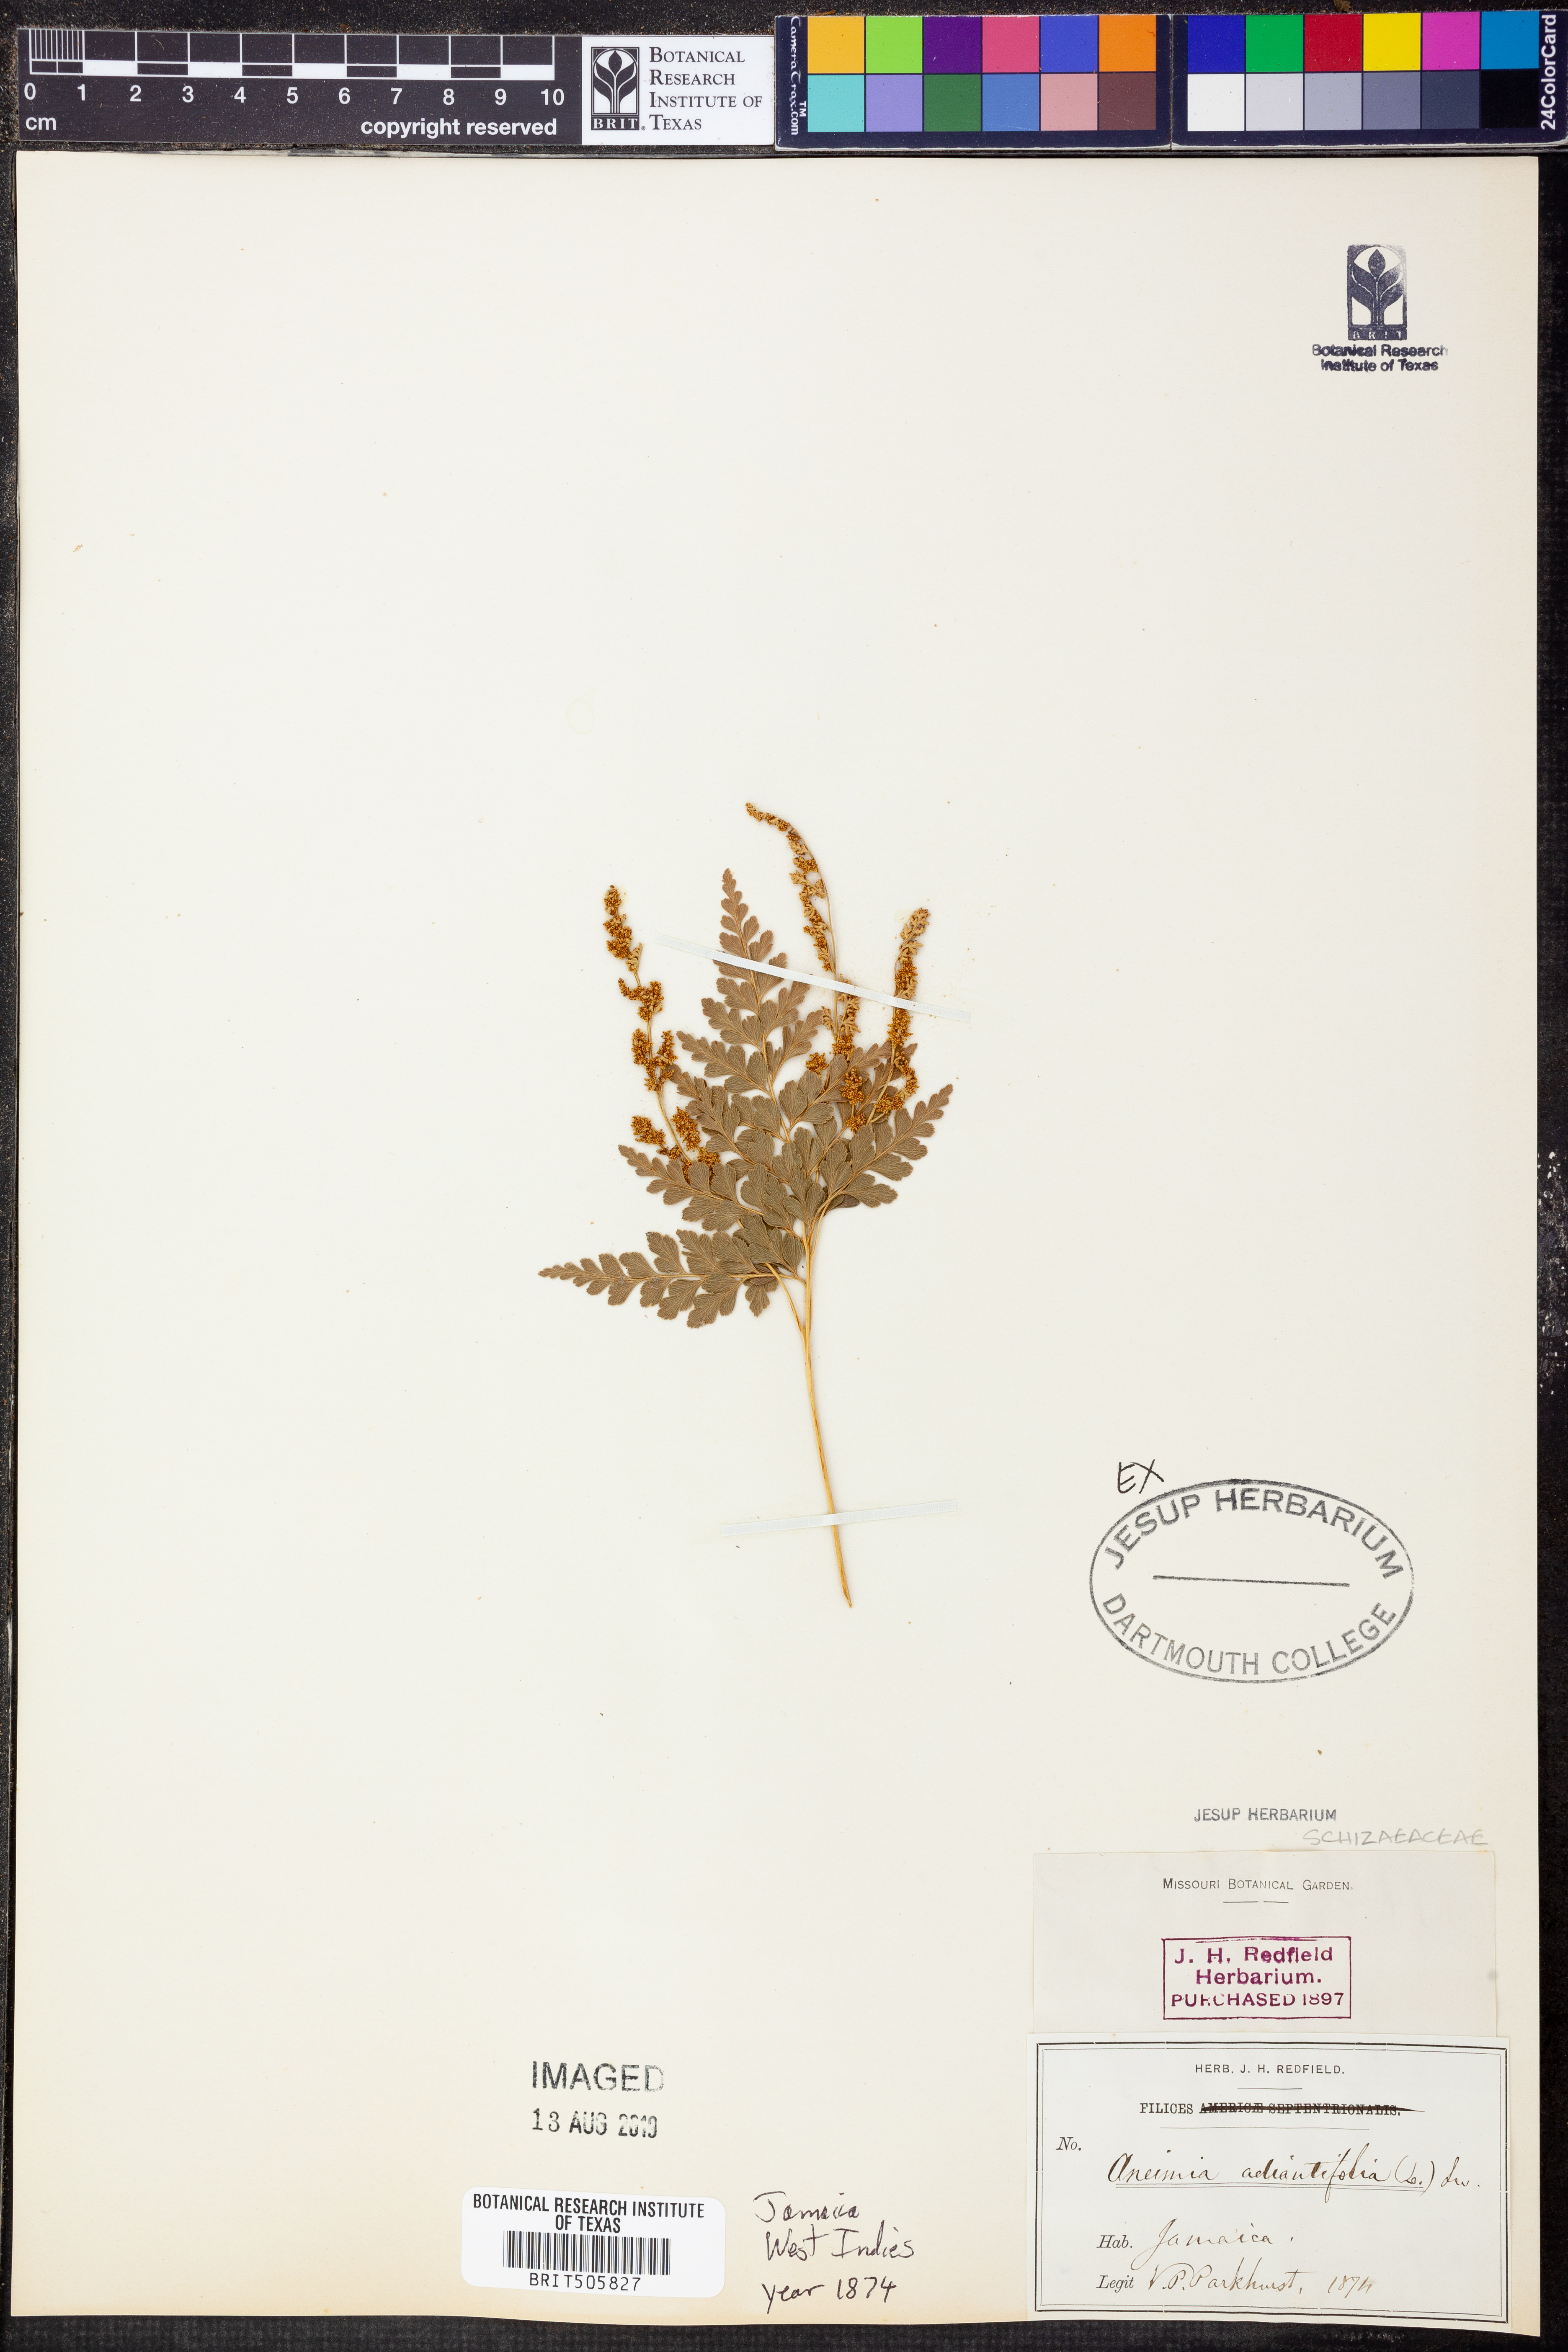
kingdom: Plantae
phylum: Tracheophyta
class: Polypodiopsida
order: Schizaeales
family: Anemiaceae
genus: Anemia
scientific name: Anemia adiantifolia
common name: Pine fern
